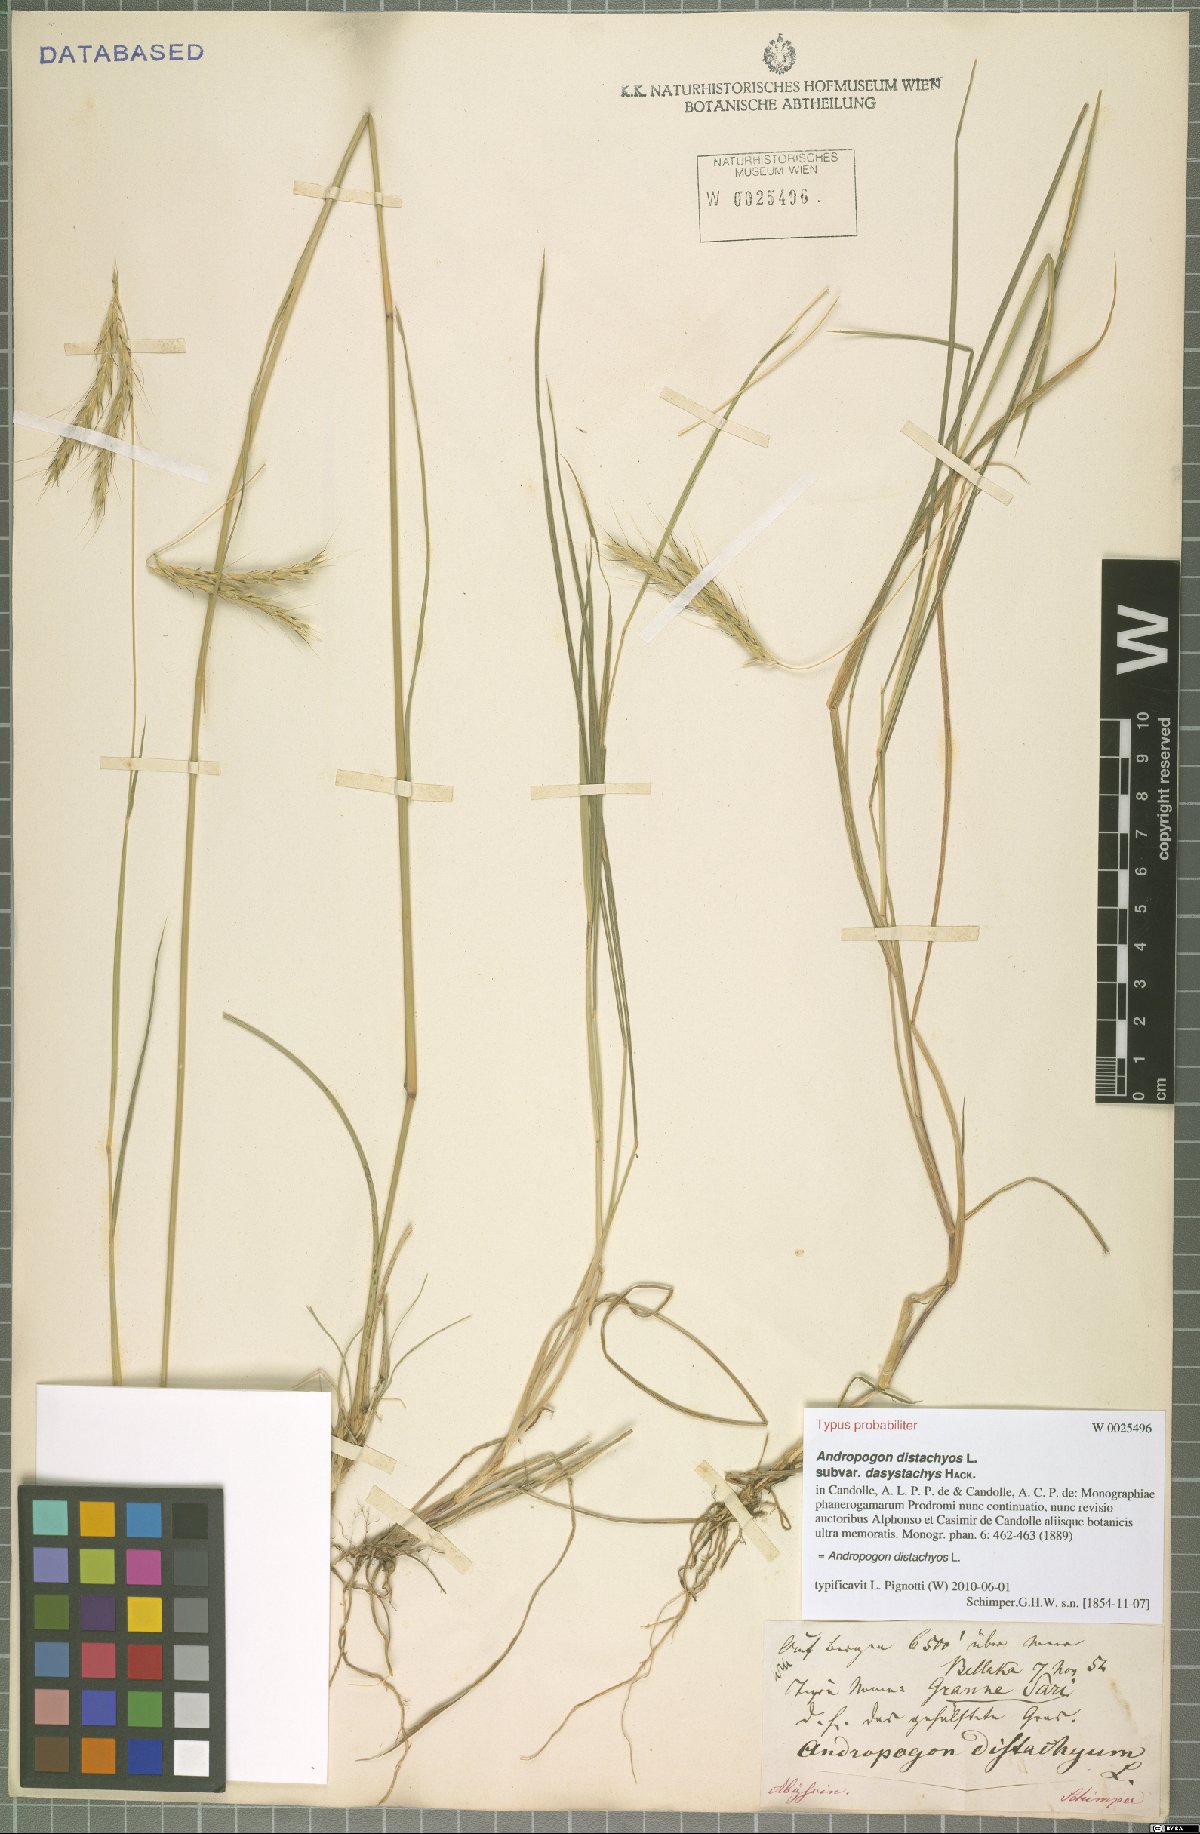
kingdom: Plantae
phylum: Tracheophyta
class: Liliopsida
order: Poales
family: Poaceae
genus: Andropogon
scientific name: Andropogon distachyos
